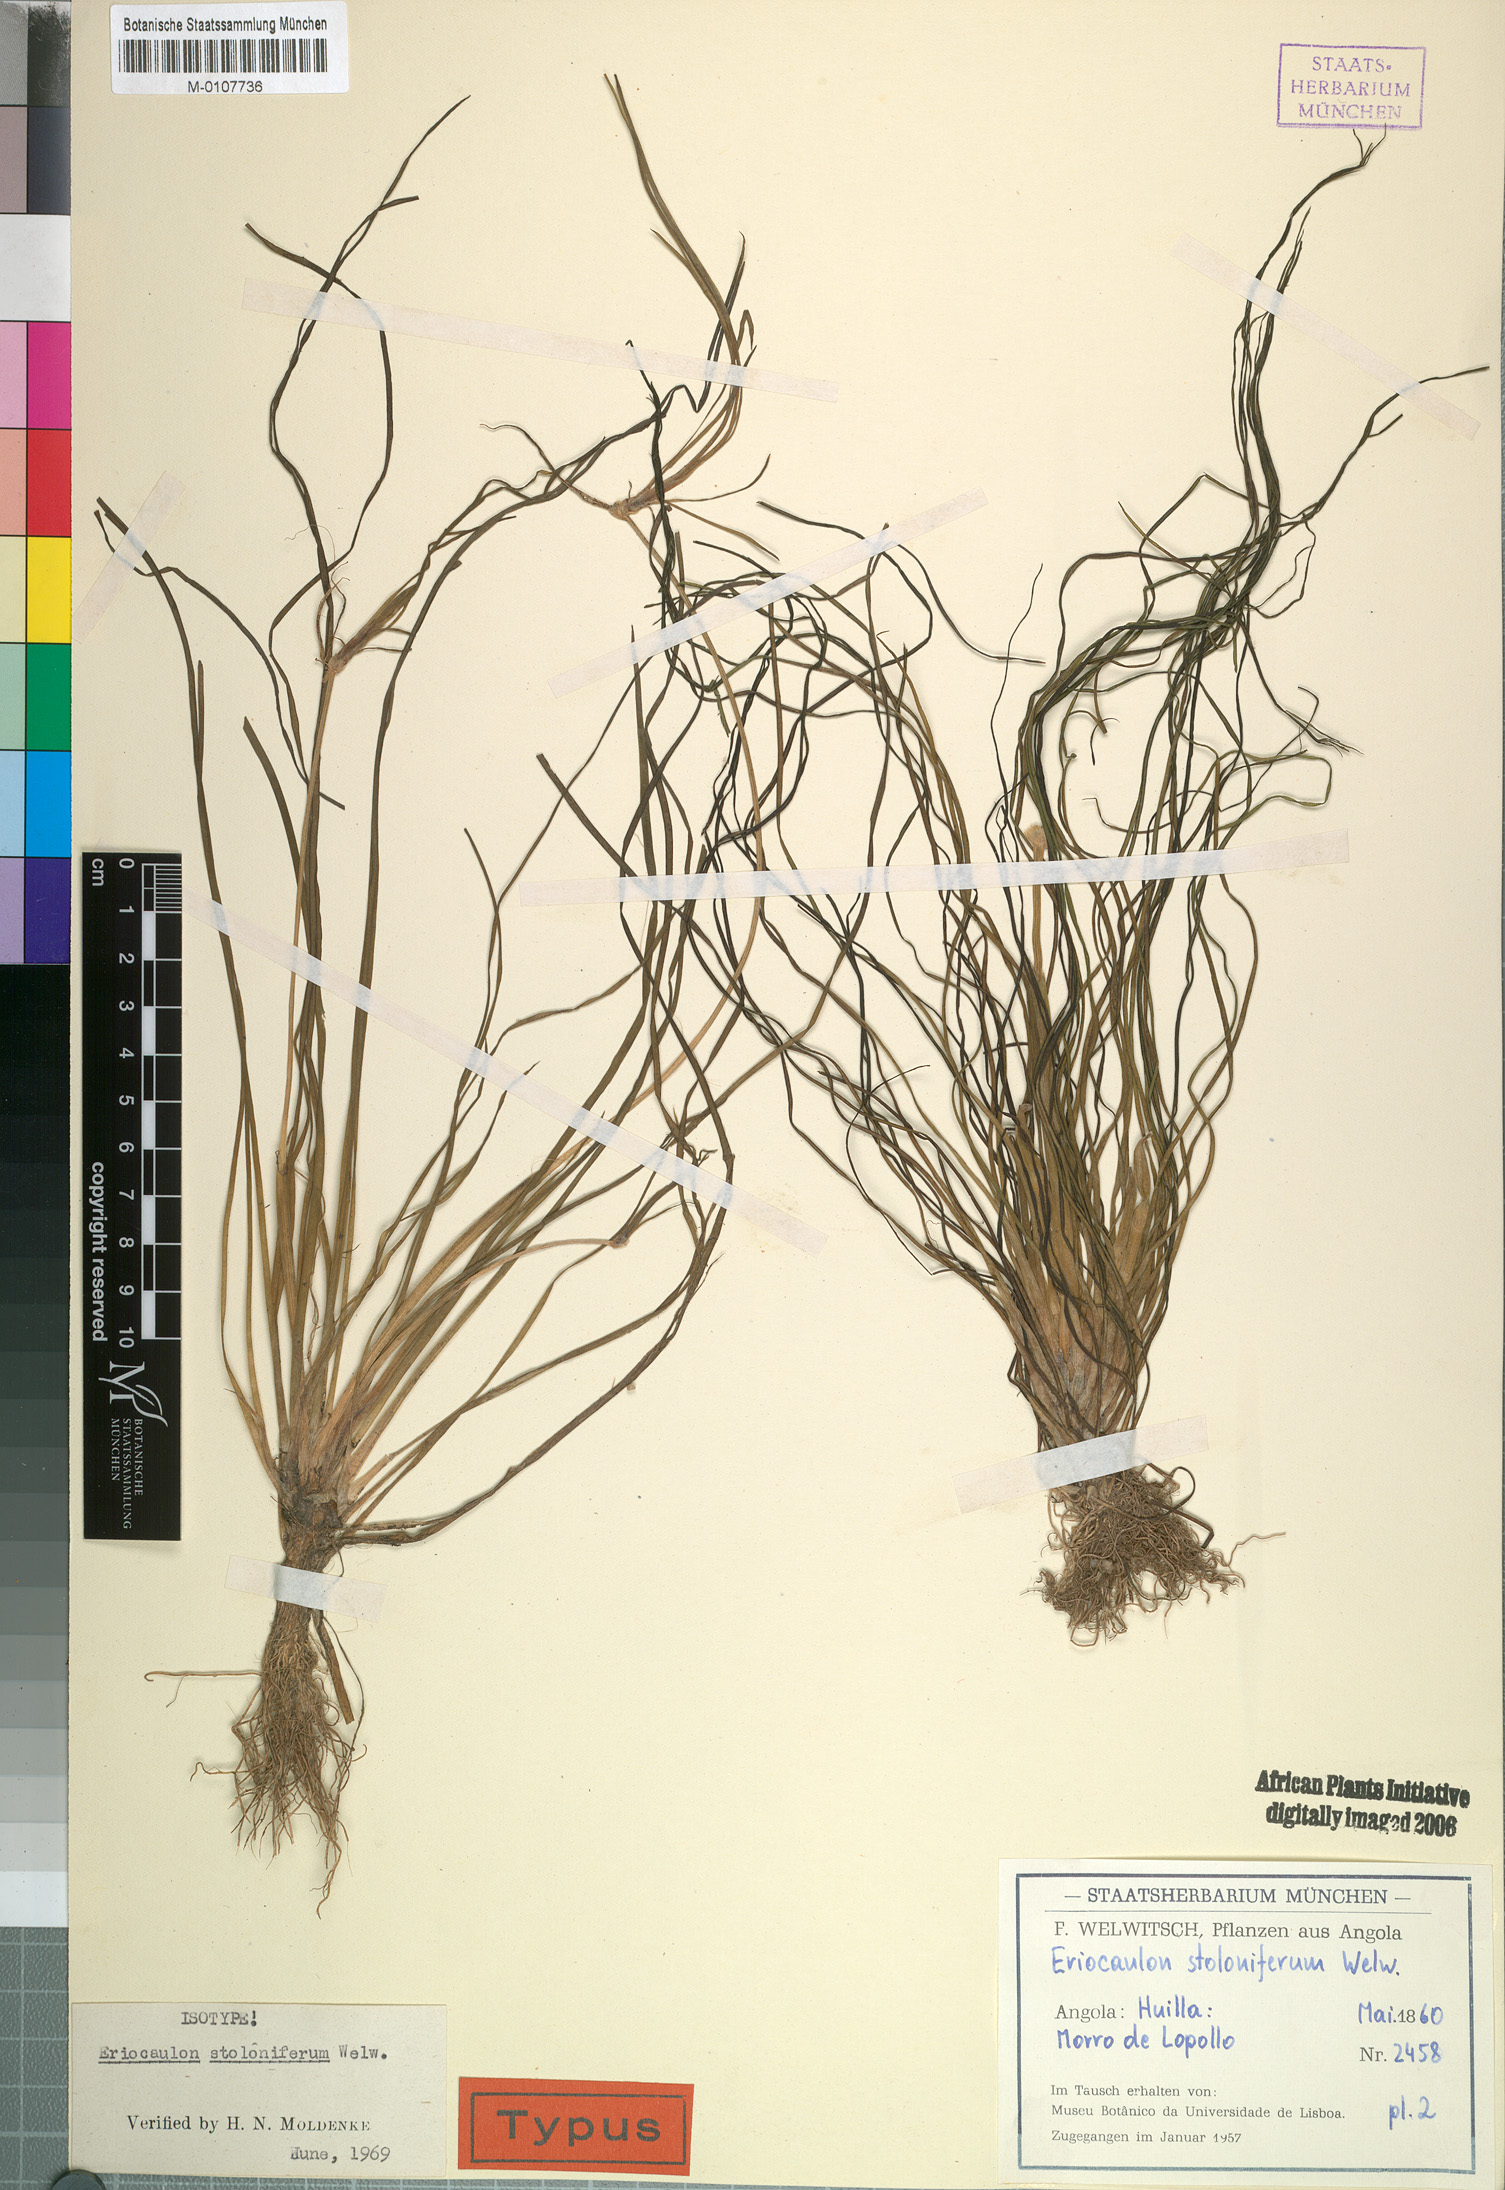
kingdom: Plantae
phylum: Tracheophyta
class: Liliopsida
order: Poales
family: Eriocaulaceae
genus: Eriocaulon
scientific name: Eriocaulon africanum
